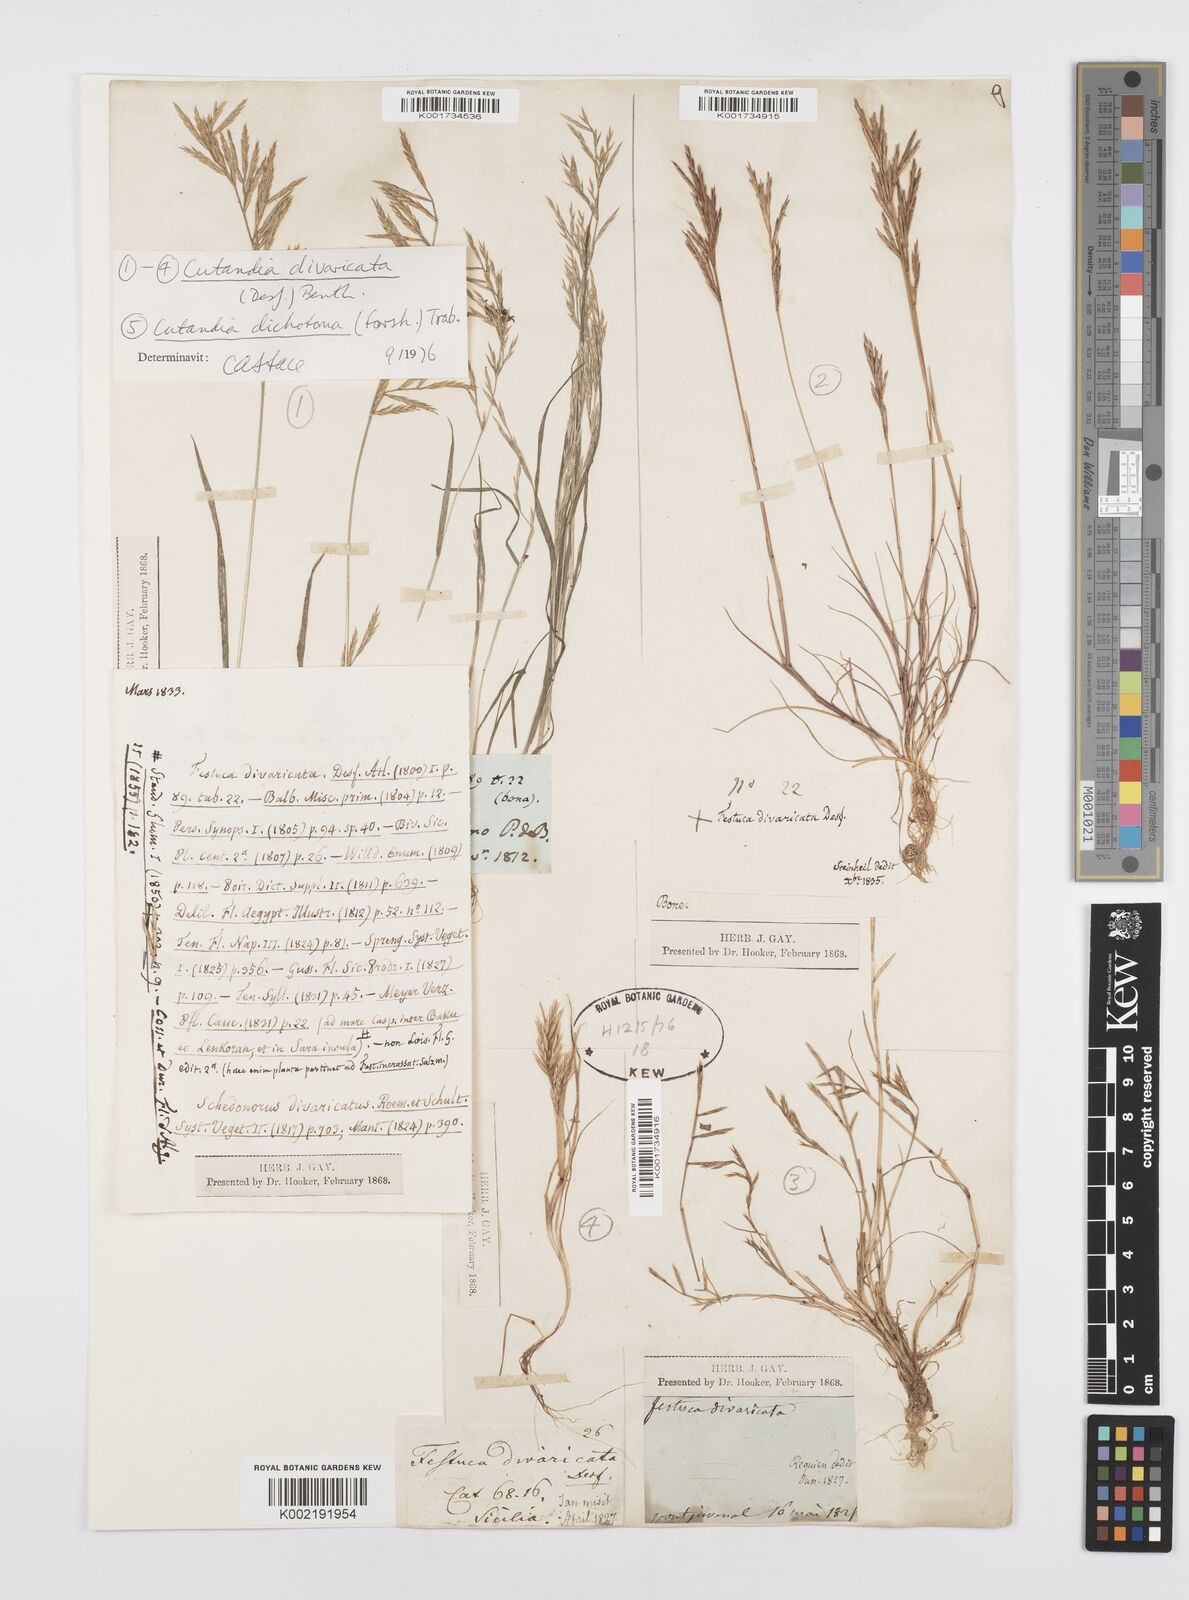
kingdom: Plantae
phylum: Tracheophyta
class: Liliopsida
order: Poales
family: Poaceae
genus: Cutandia
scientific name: Cutandia divaricata
